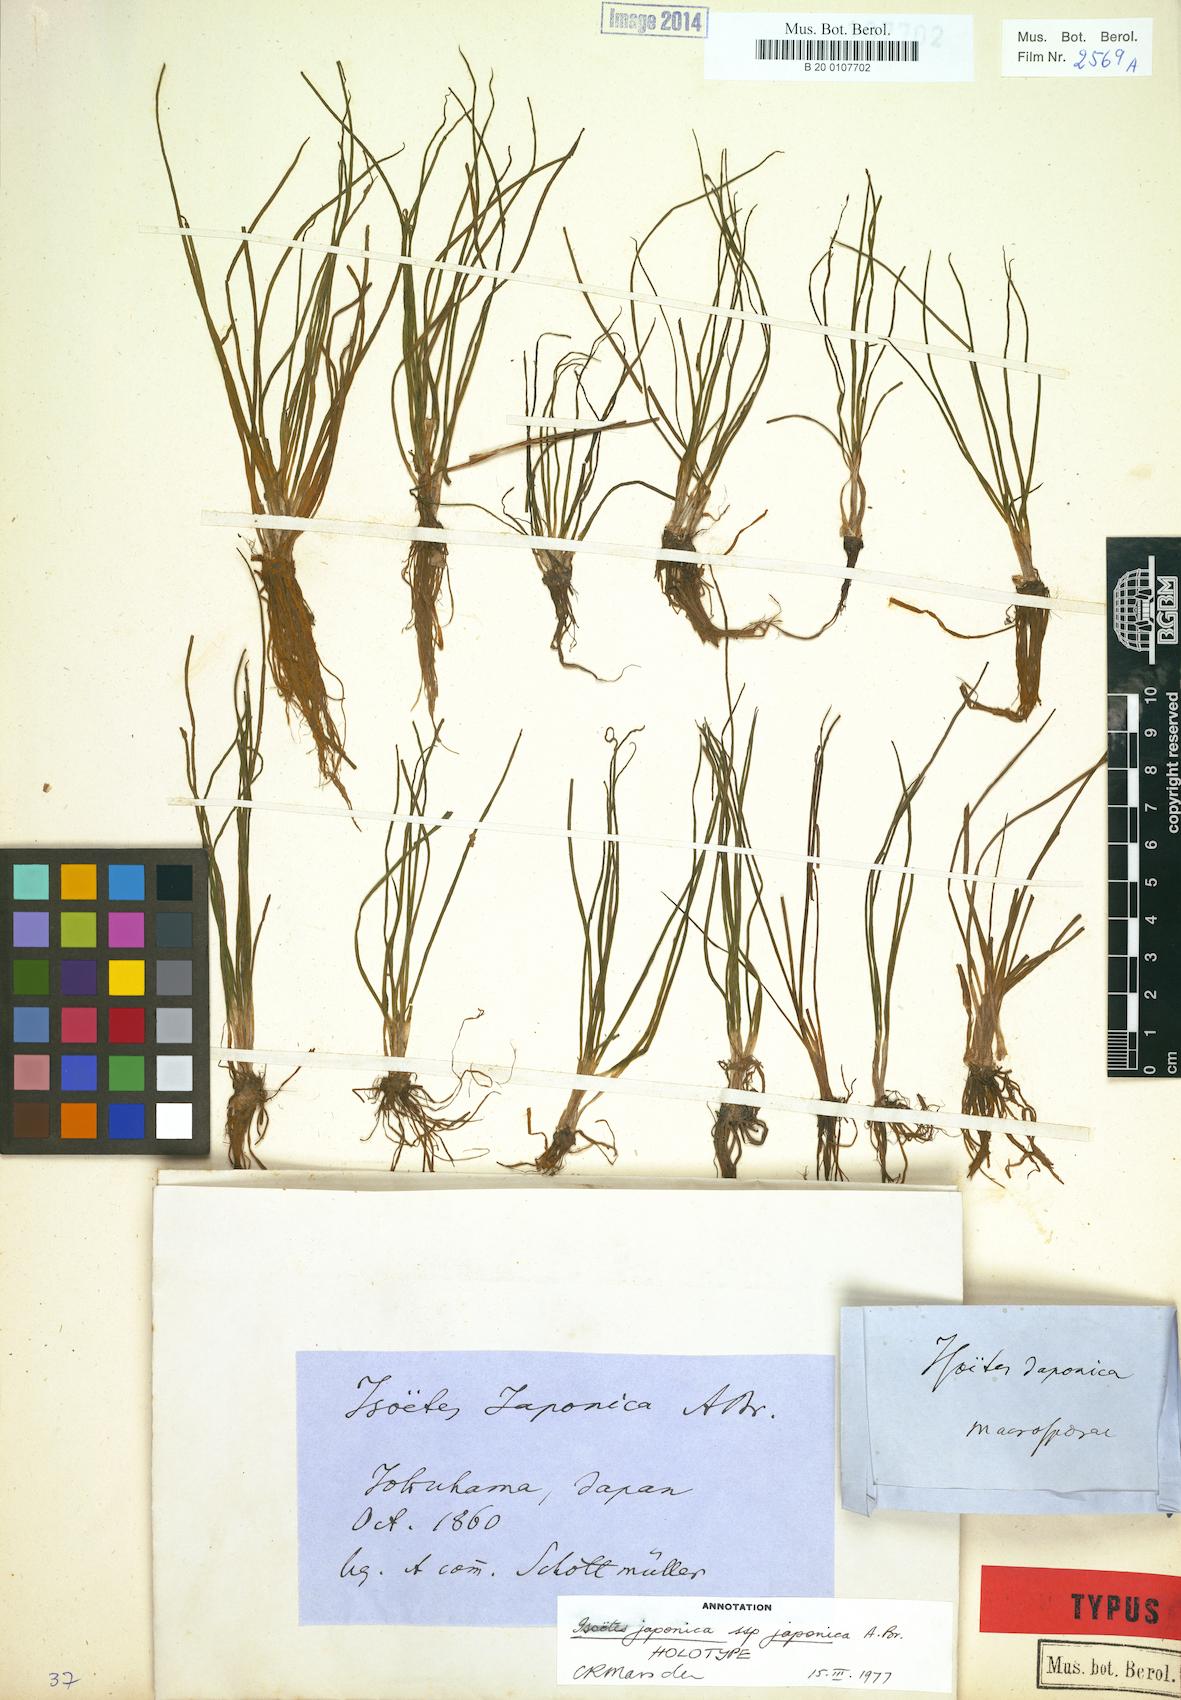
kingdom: Plantae
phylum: Tracheophyta
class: Lycopodiopsida
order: Isoetales
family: Isoetaceae
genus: Isoetes
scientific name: Isoetes japonica
